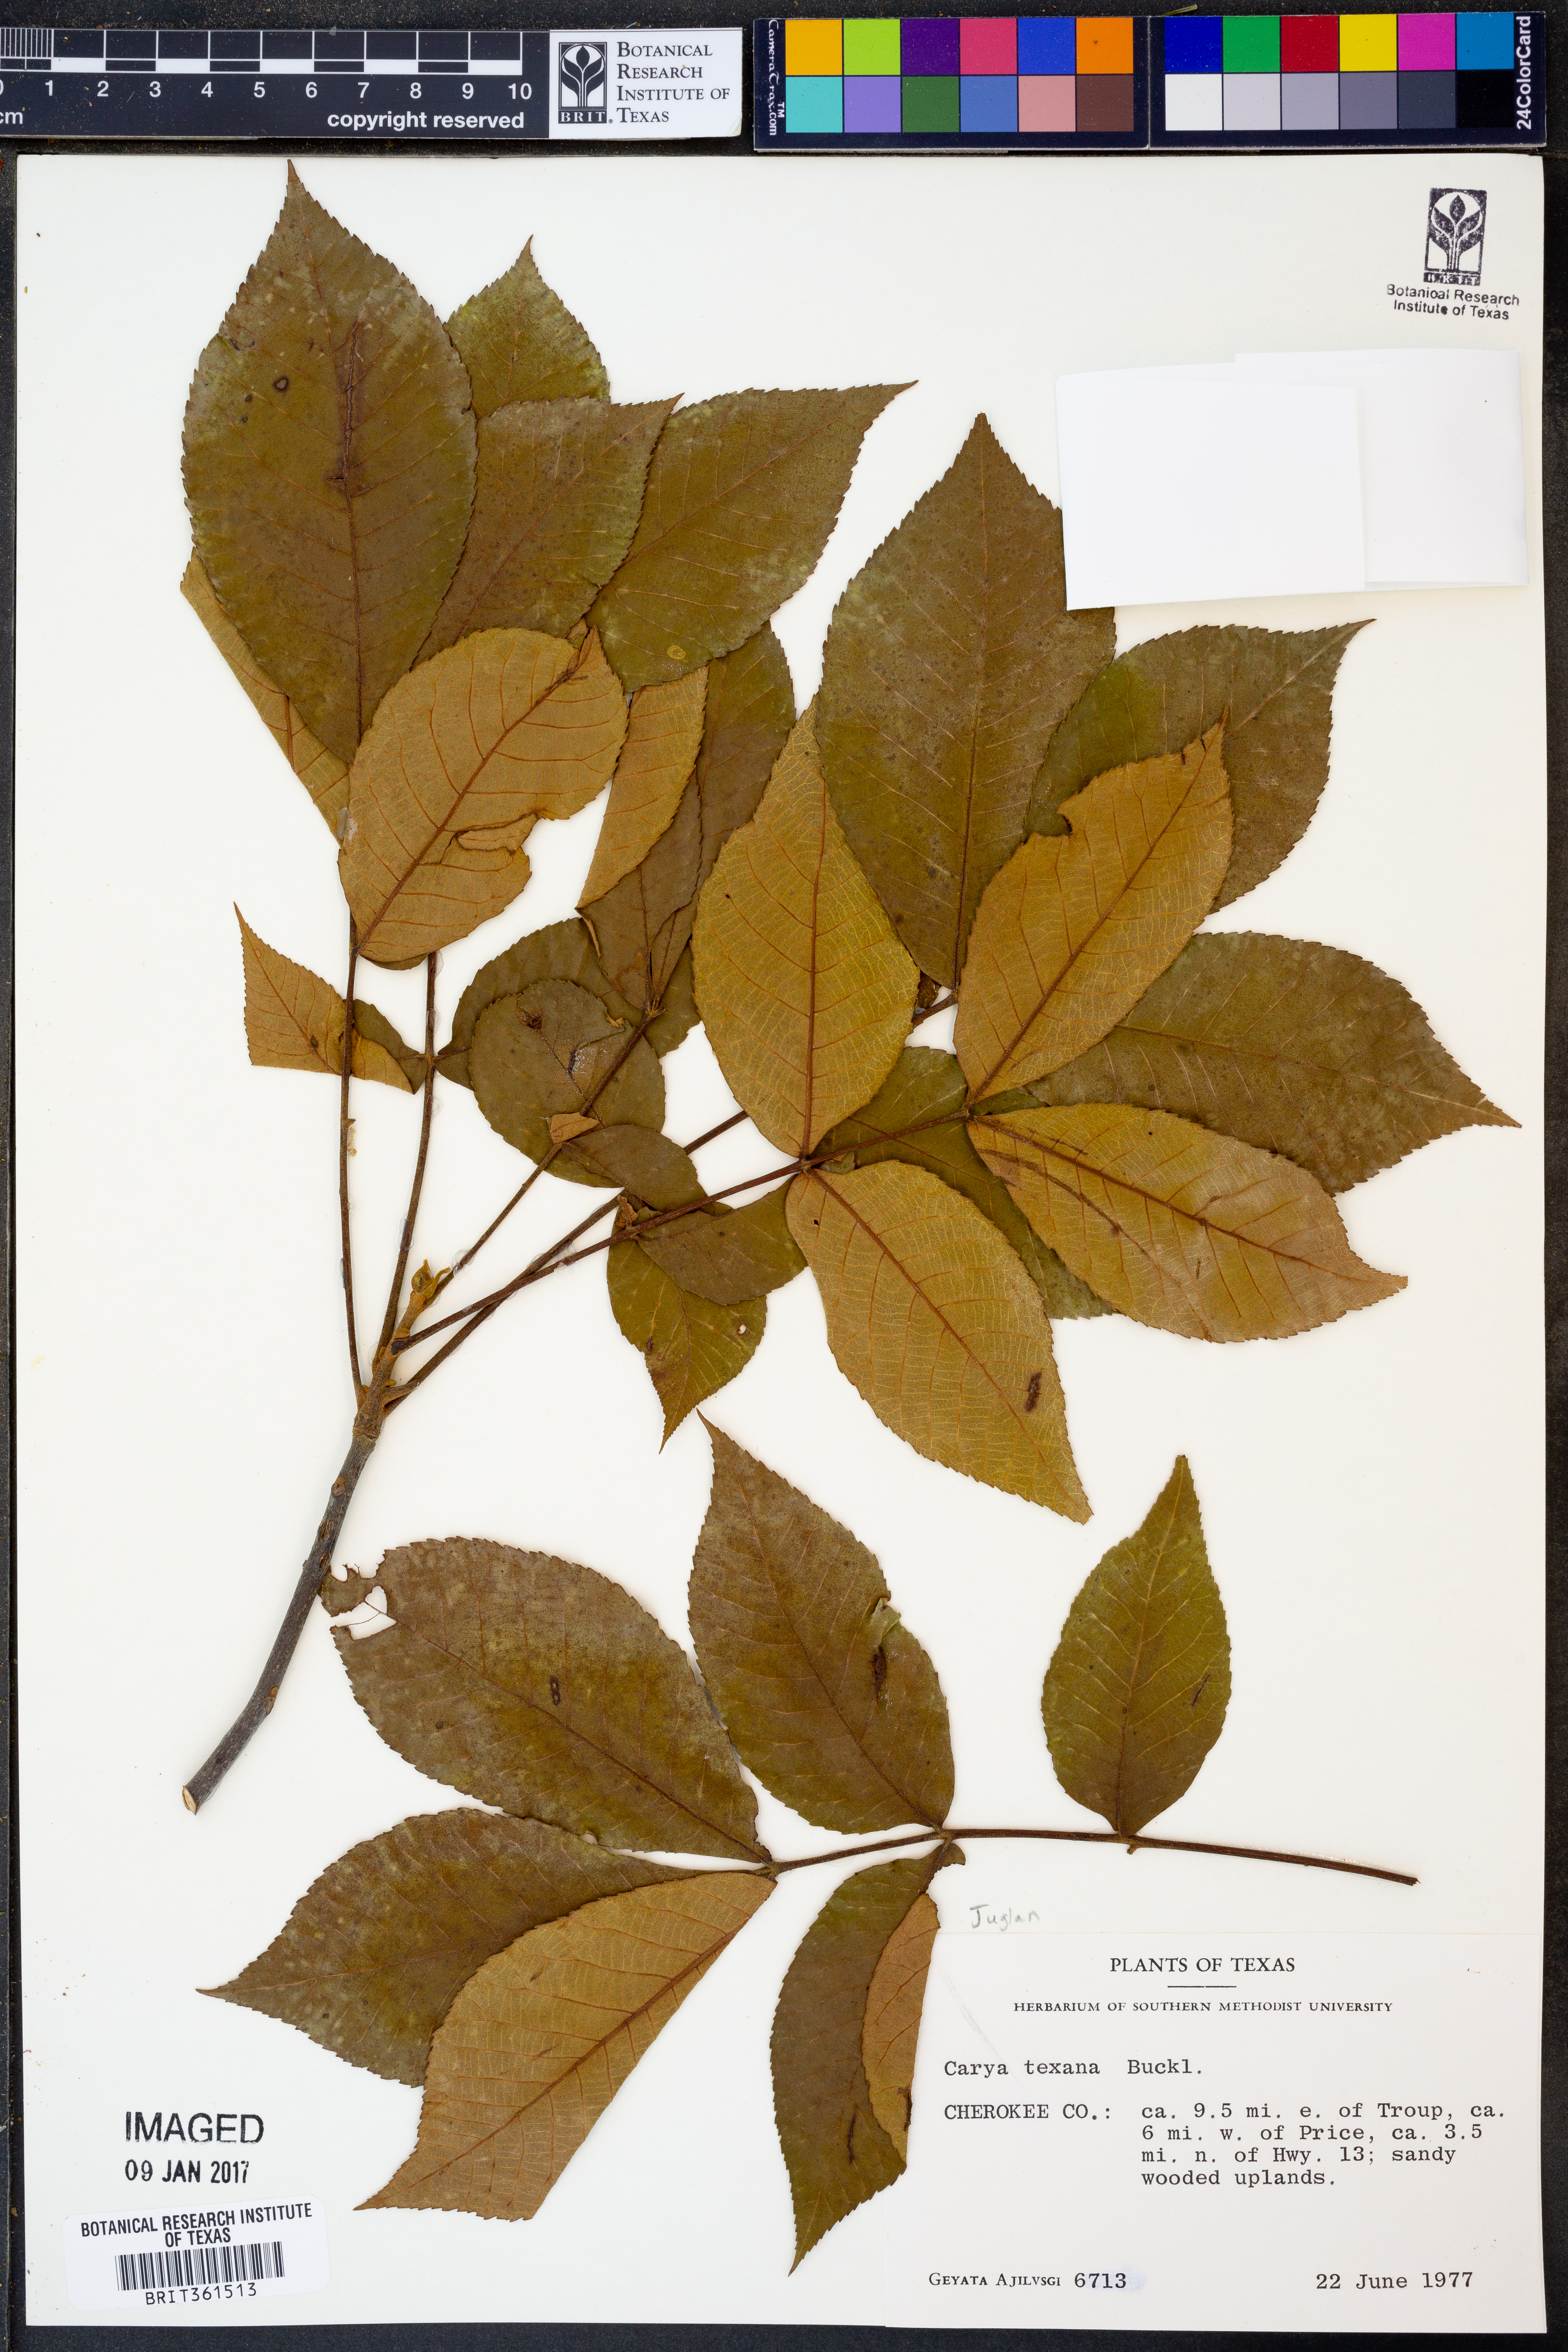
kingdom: Plantae
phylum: Tracheophyta
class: Magnoliopsida
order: Fagales
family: Juglandaceae
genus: Carya
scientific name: Carya texana
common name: Black hickory
